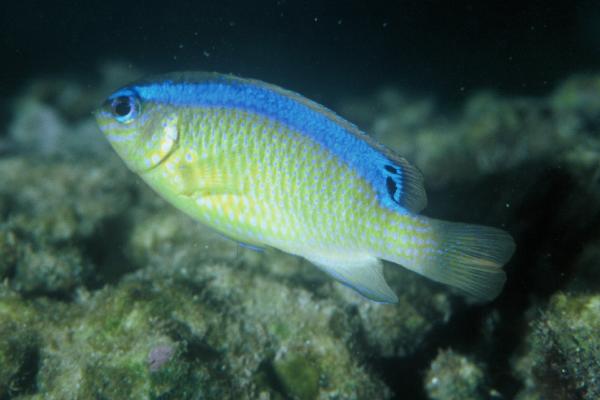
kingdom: Animalia
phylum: Chordata
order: Perciformes
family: Pomacentridae
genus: Chrysiptera
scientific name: Chrysiptera brownriggii
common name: Surge demoiselle
